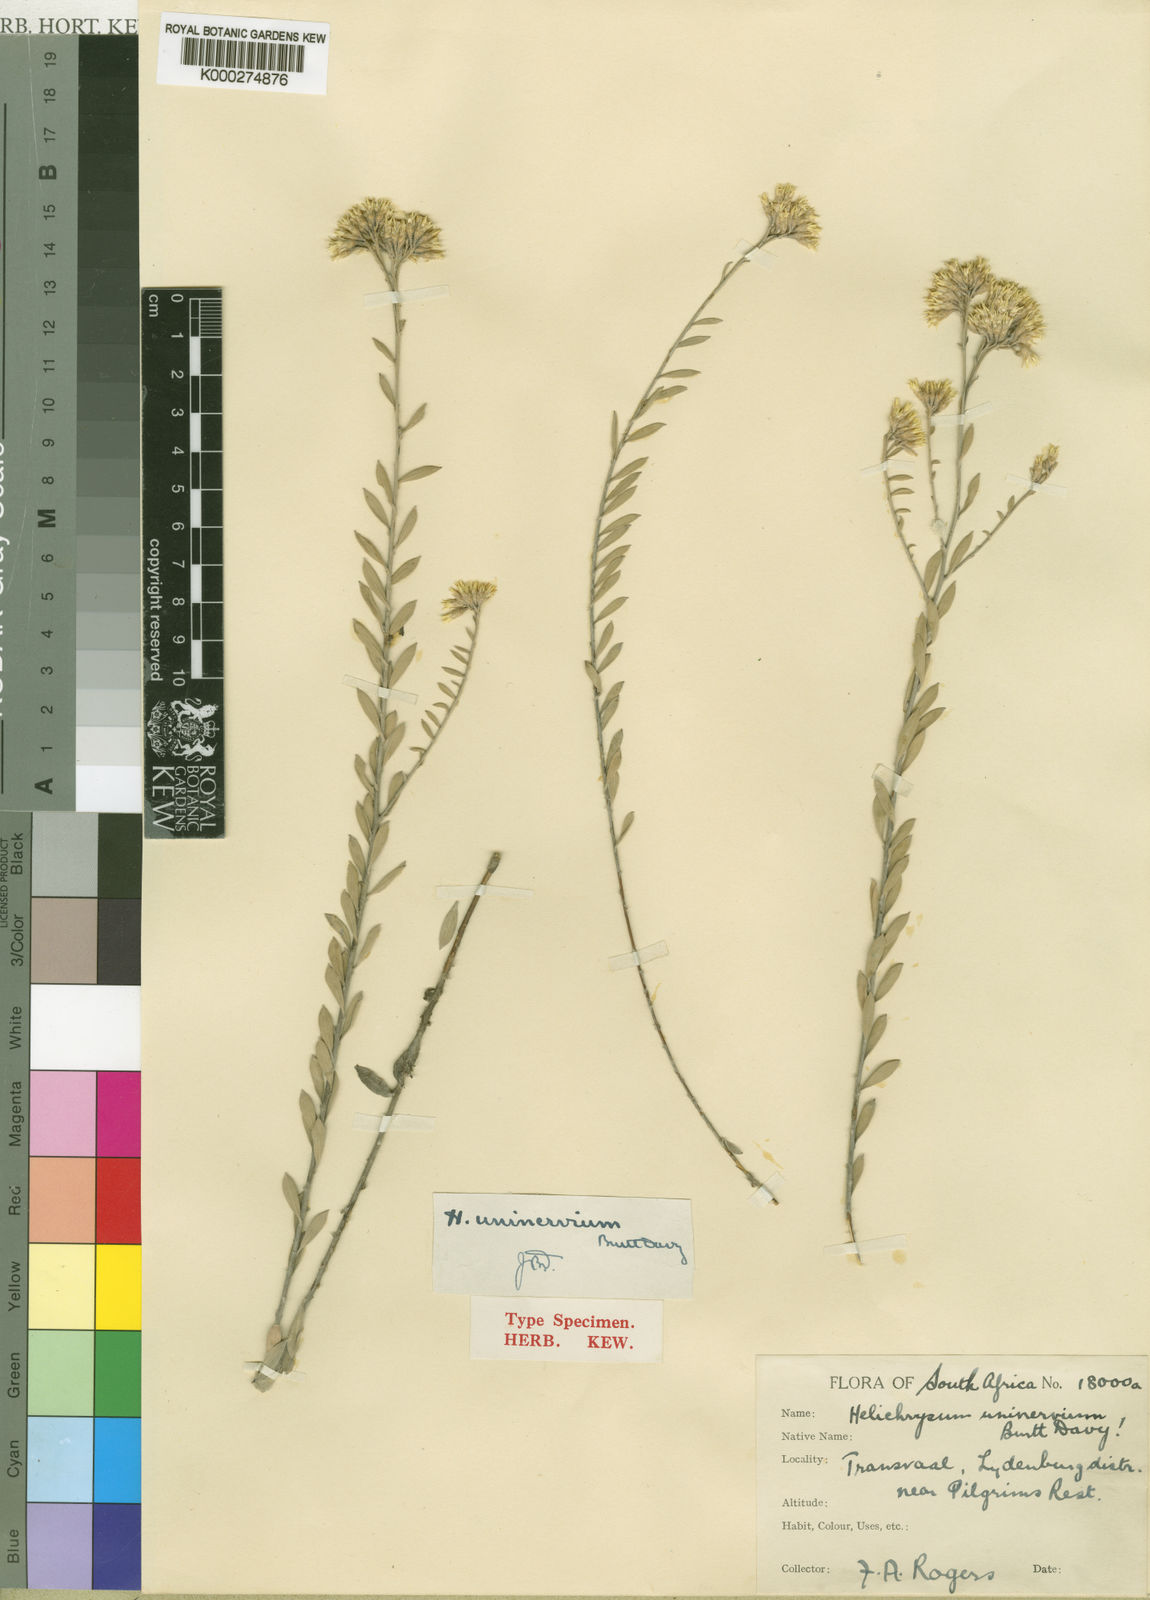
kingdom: Plantae
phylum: Tracheophyta
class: Magnoliopsida
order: Asterales
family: Asteraceae
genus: Helichrysum
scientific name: Helichrysum uninervium
